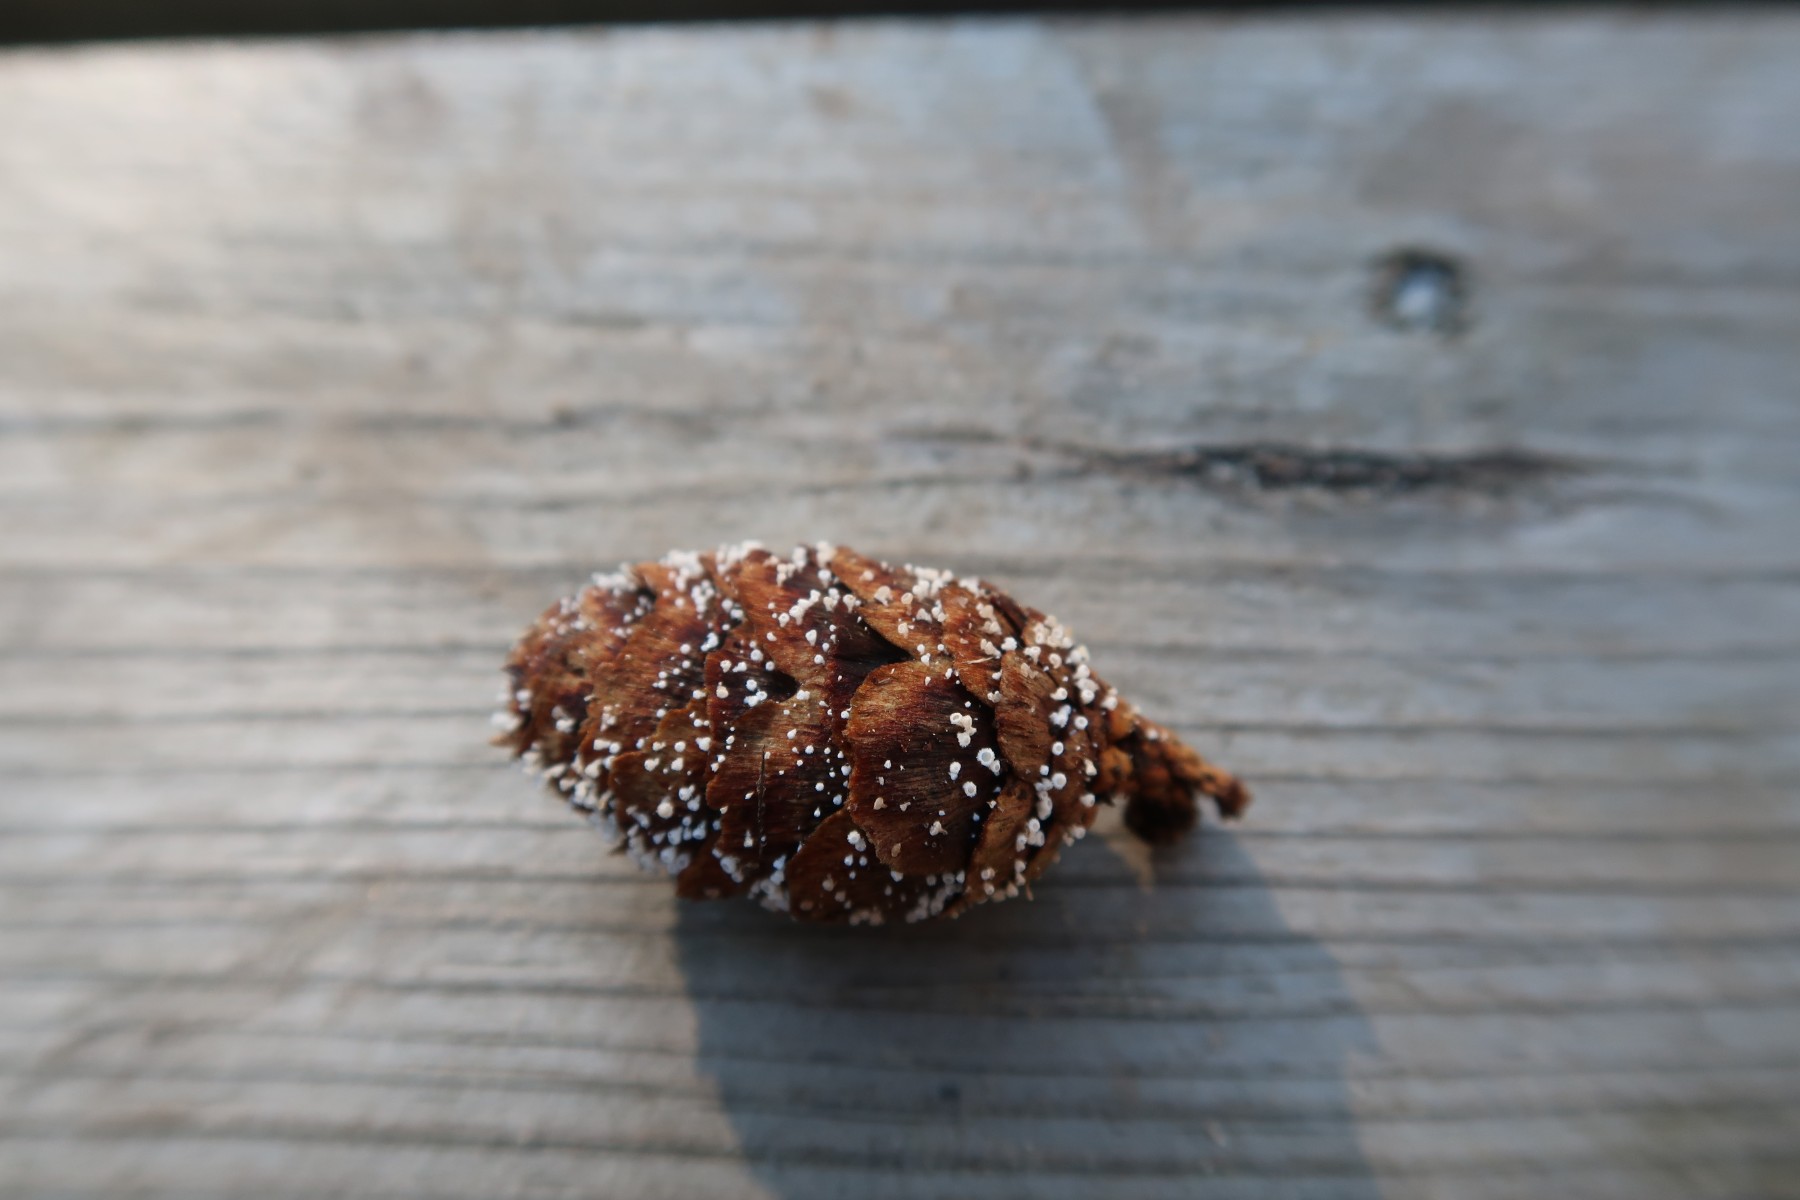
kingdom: Fungi
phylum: Ascomycota
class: Leotiomycetes
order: Helotiales
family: Lachnaceae
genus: Lachnum
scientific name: Lachnum virgineum
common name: jomfru-frynseskive
